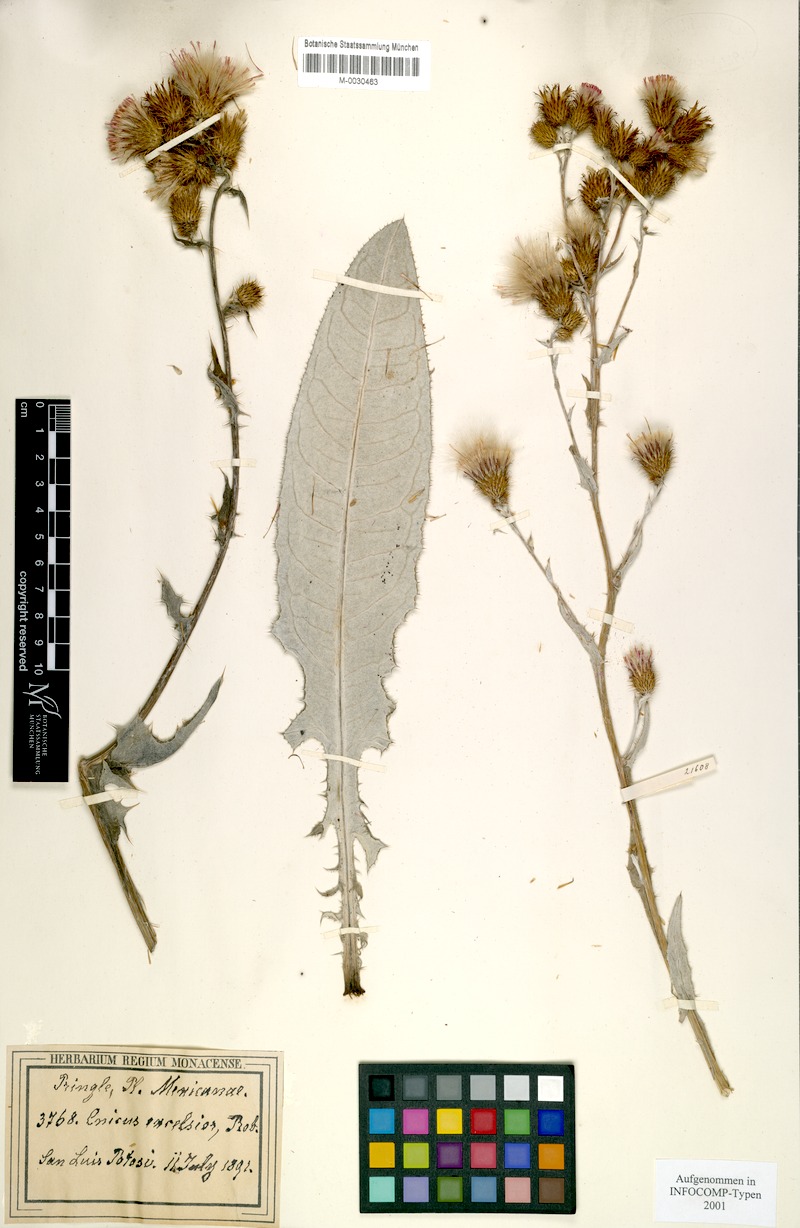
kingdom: Plantae
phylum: Tracheophyta
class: Magnoliopsida
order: Asterales
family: Asteraceae
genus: Cirsium
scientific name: Cirsium excelsius
